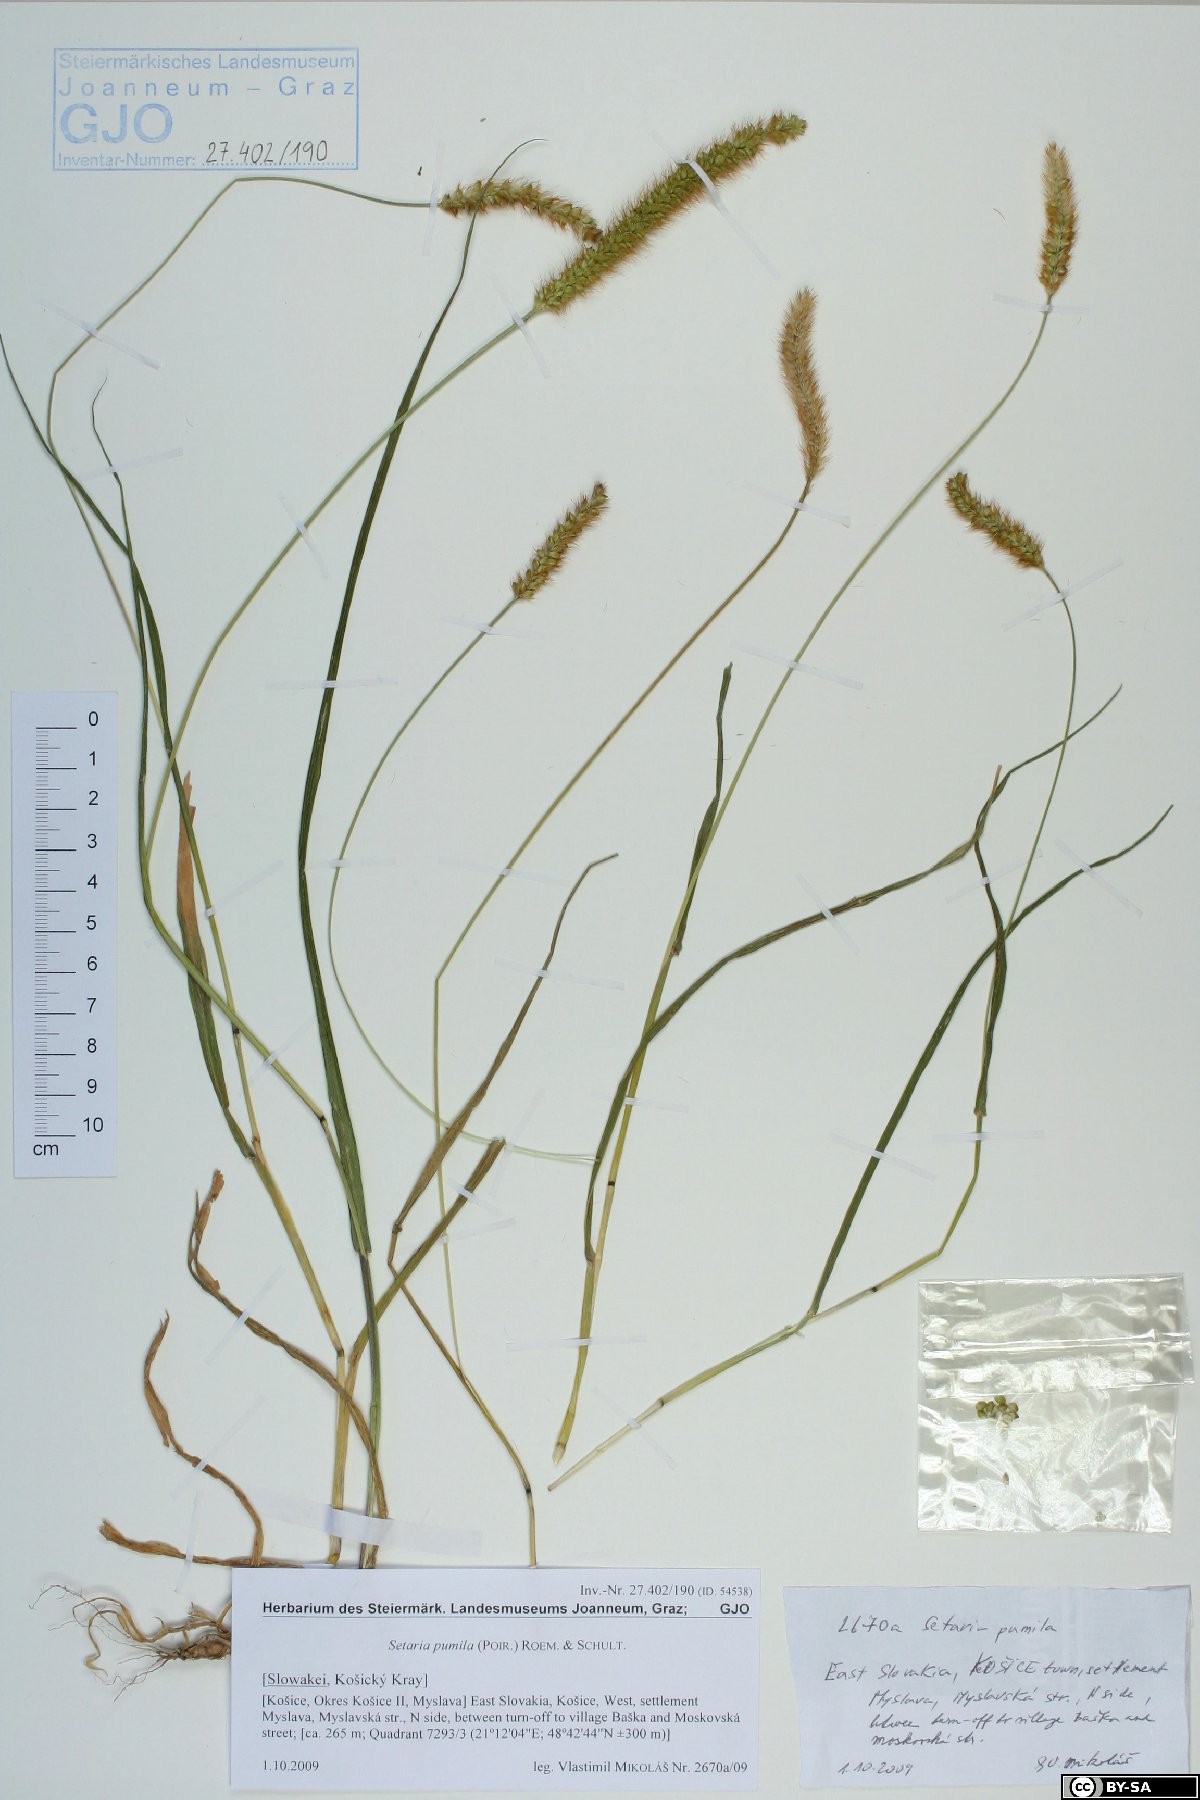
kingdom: Plantae
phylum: Tracheophyta
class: Liliopsida
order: Poales
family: Poaceae
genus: Setaria
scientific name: Setaria pumila
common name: Yellow bristle-grass
